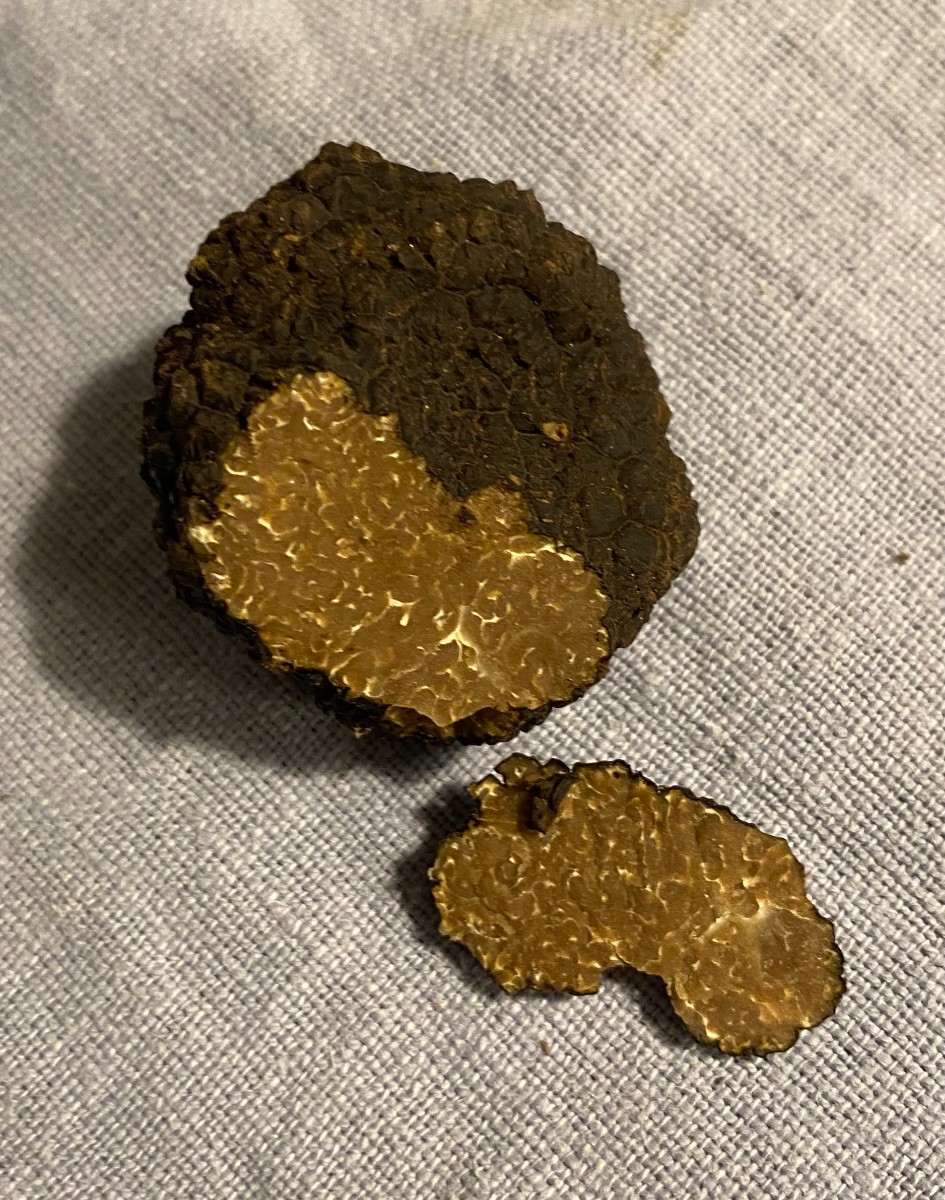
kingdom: Fungi
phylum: Ascomycota
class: Pezizomycetes
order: Pezizales
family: Tuberaceae
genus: Tuber
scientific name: Tuber aestivum
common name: sommer-trøffel
